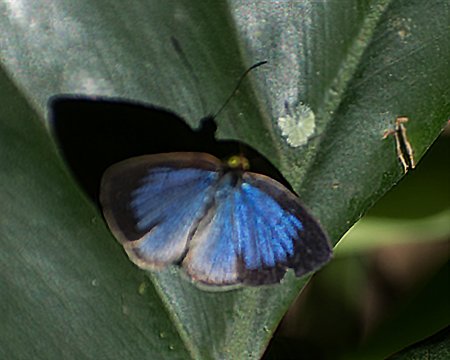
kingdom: Animalia
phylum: Arthropoda
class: Insecta
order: Lepidoptera
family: Nymphalidae
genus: Ethope
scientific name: Ethope
